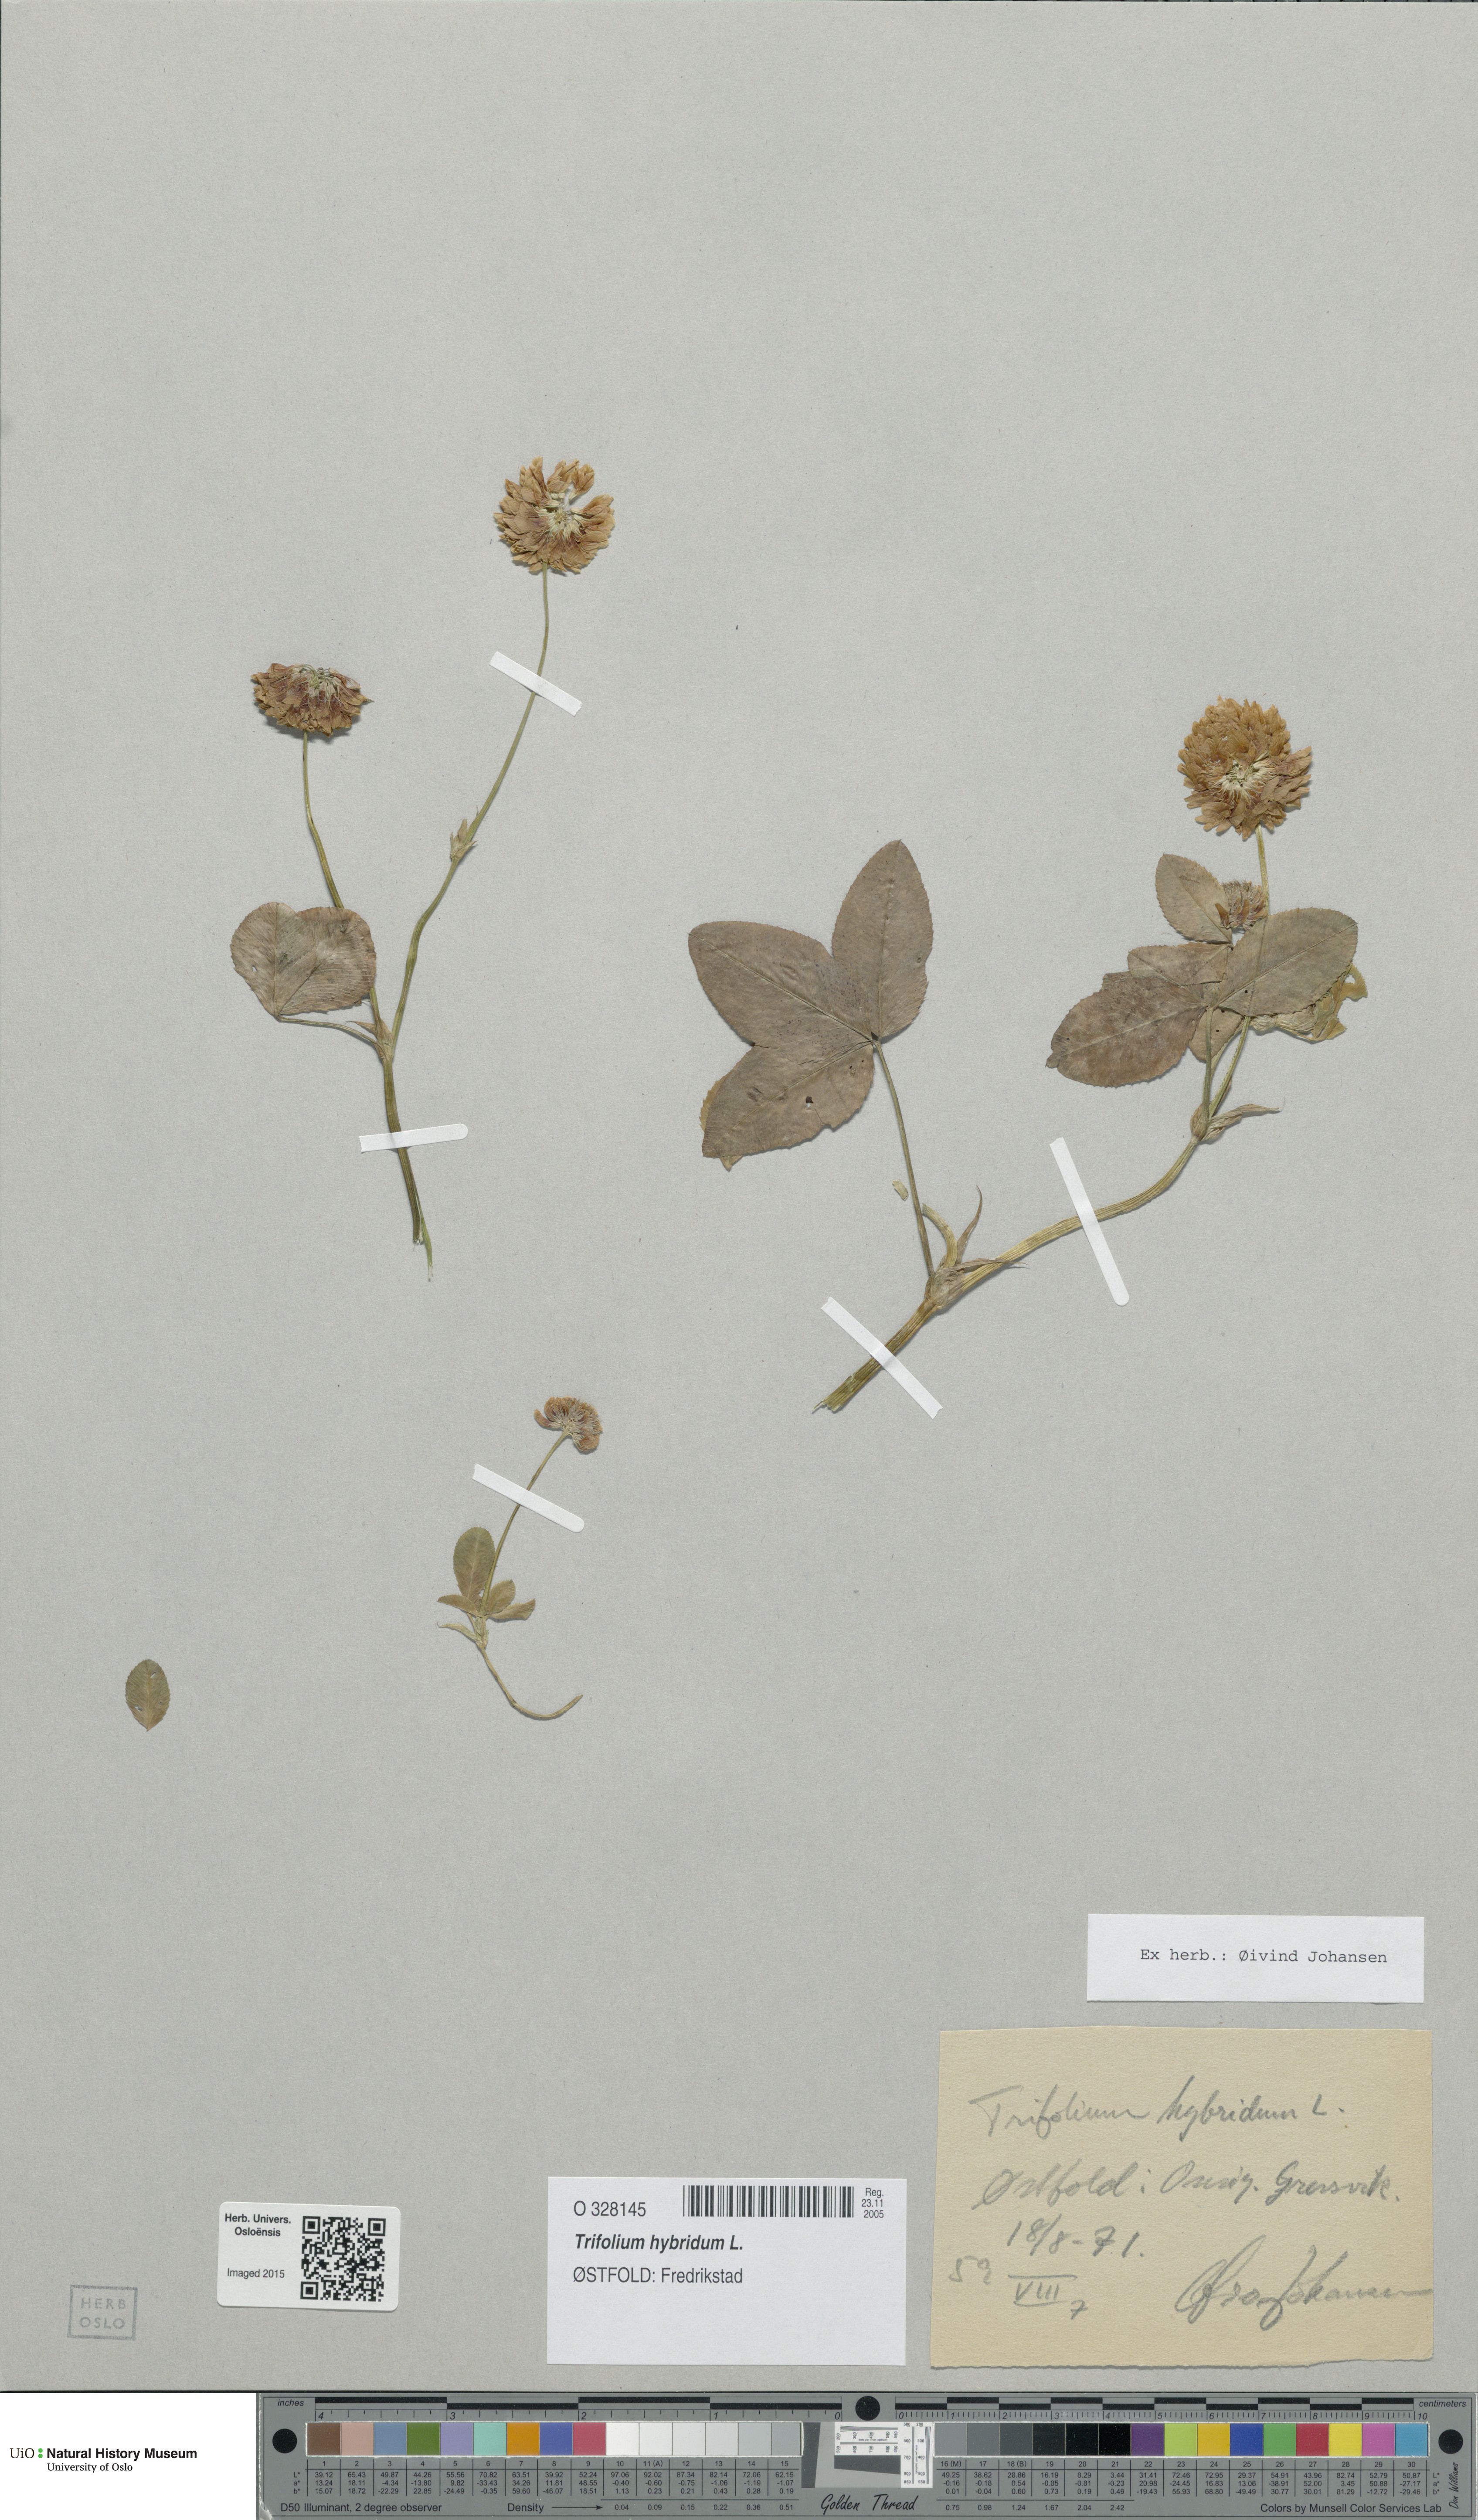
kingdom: Plantae
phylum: Tracheophyta
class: Magnoliopsida
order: Fabales
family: Fabaceae
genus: Trifolium
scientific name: Trifolium hybridum
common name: Alsike clover
